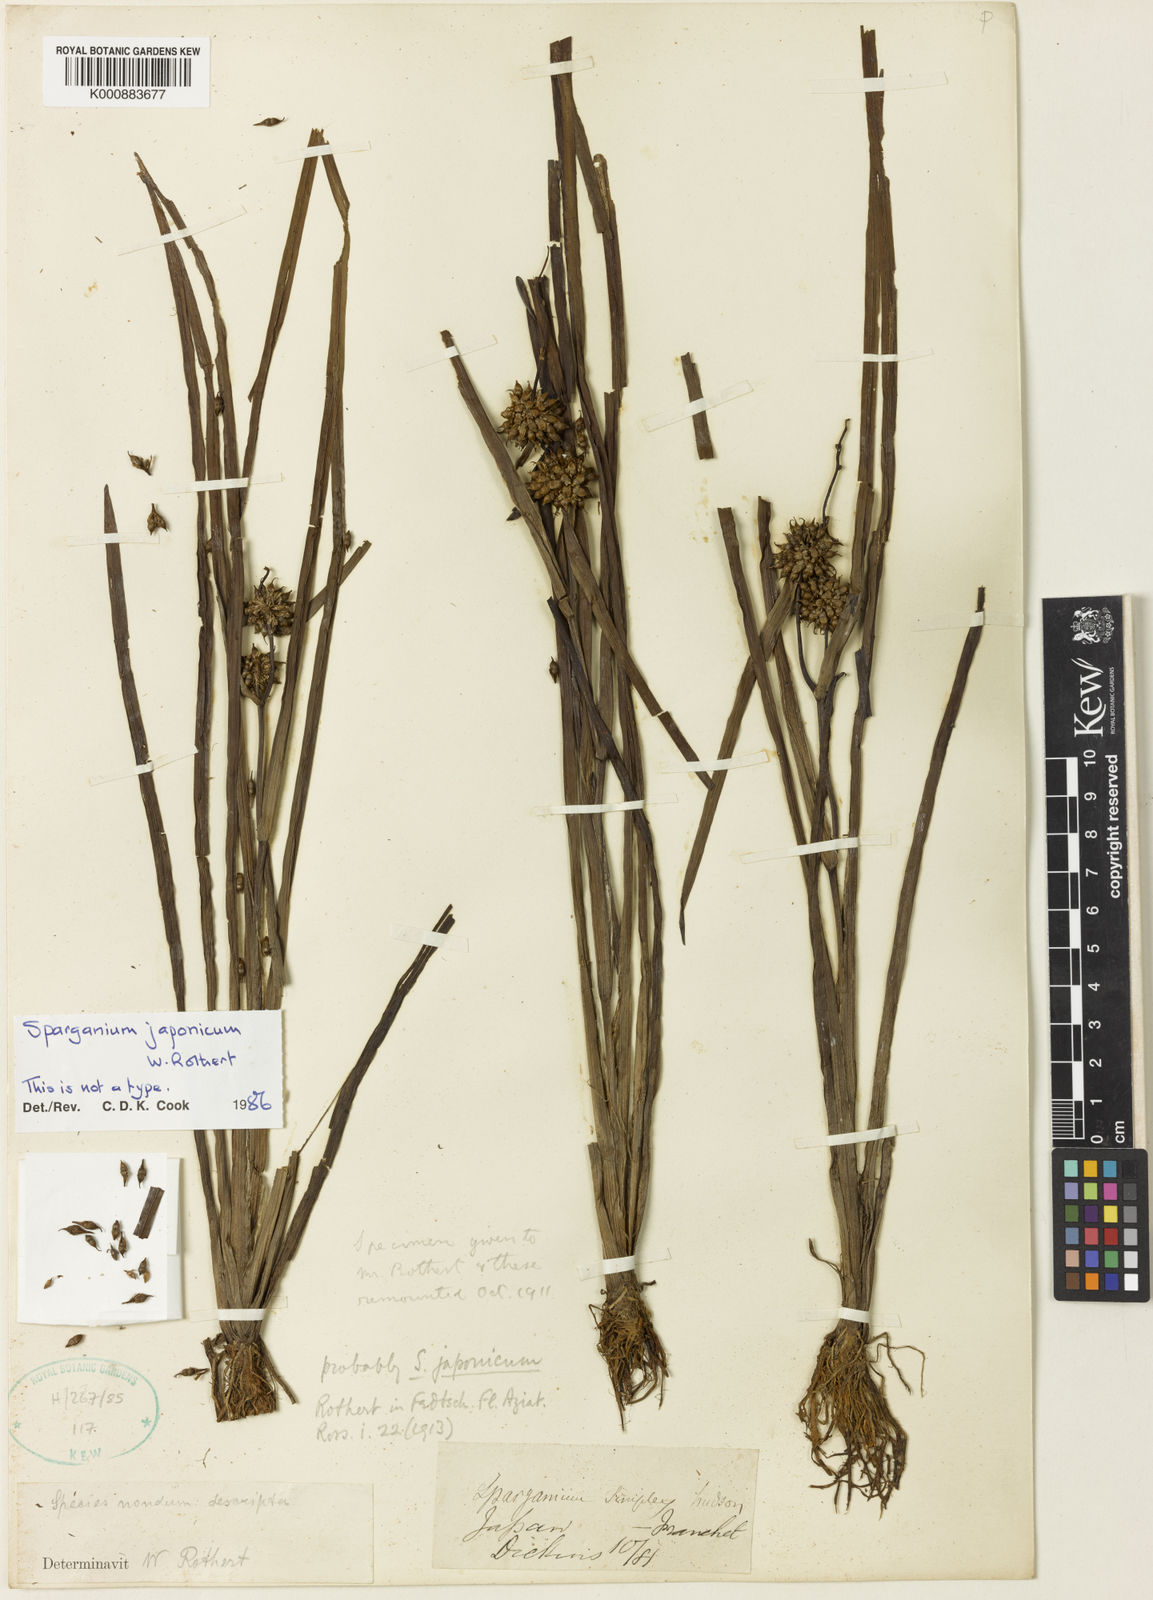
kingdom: Plantae
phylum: Tracheophyta
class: Liliopsida
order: Poales
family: Typhaceae
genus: Sparganium
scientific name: Sparganium japonicum
